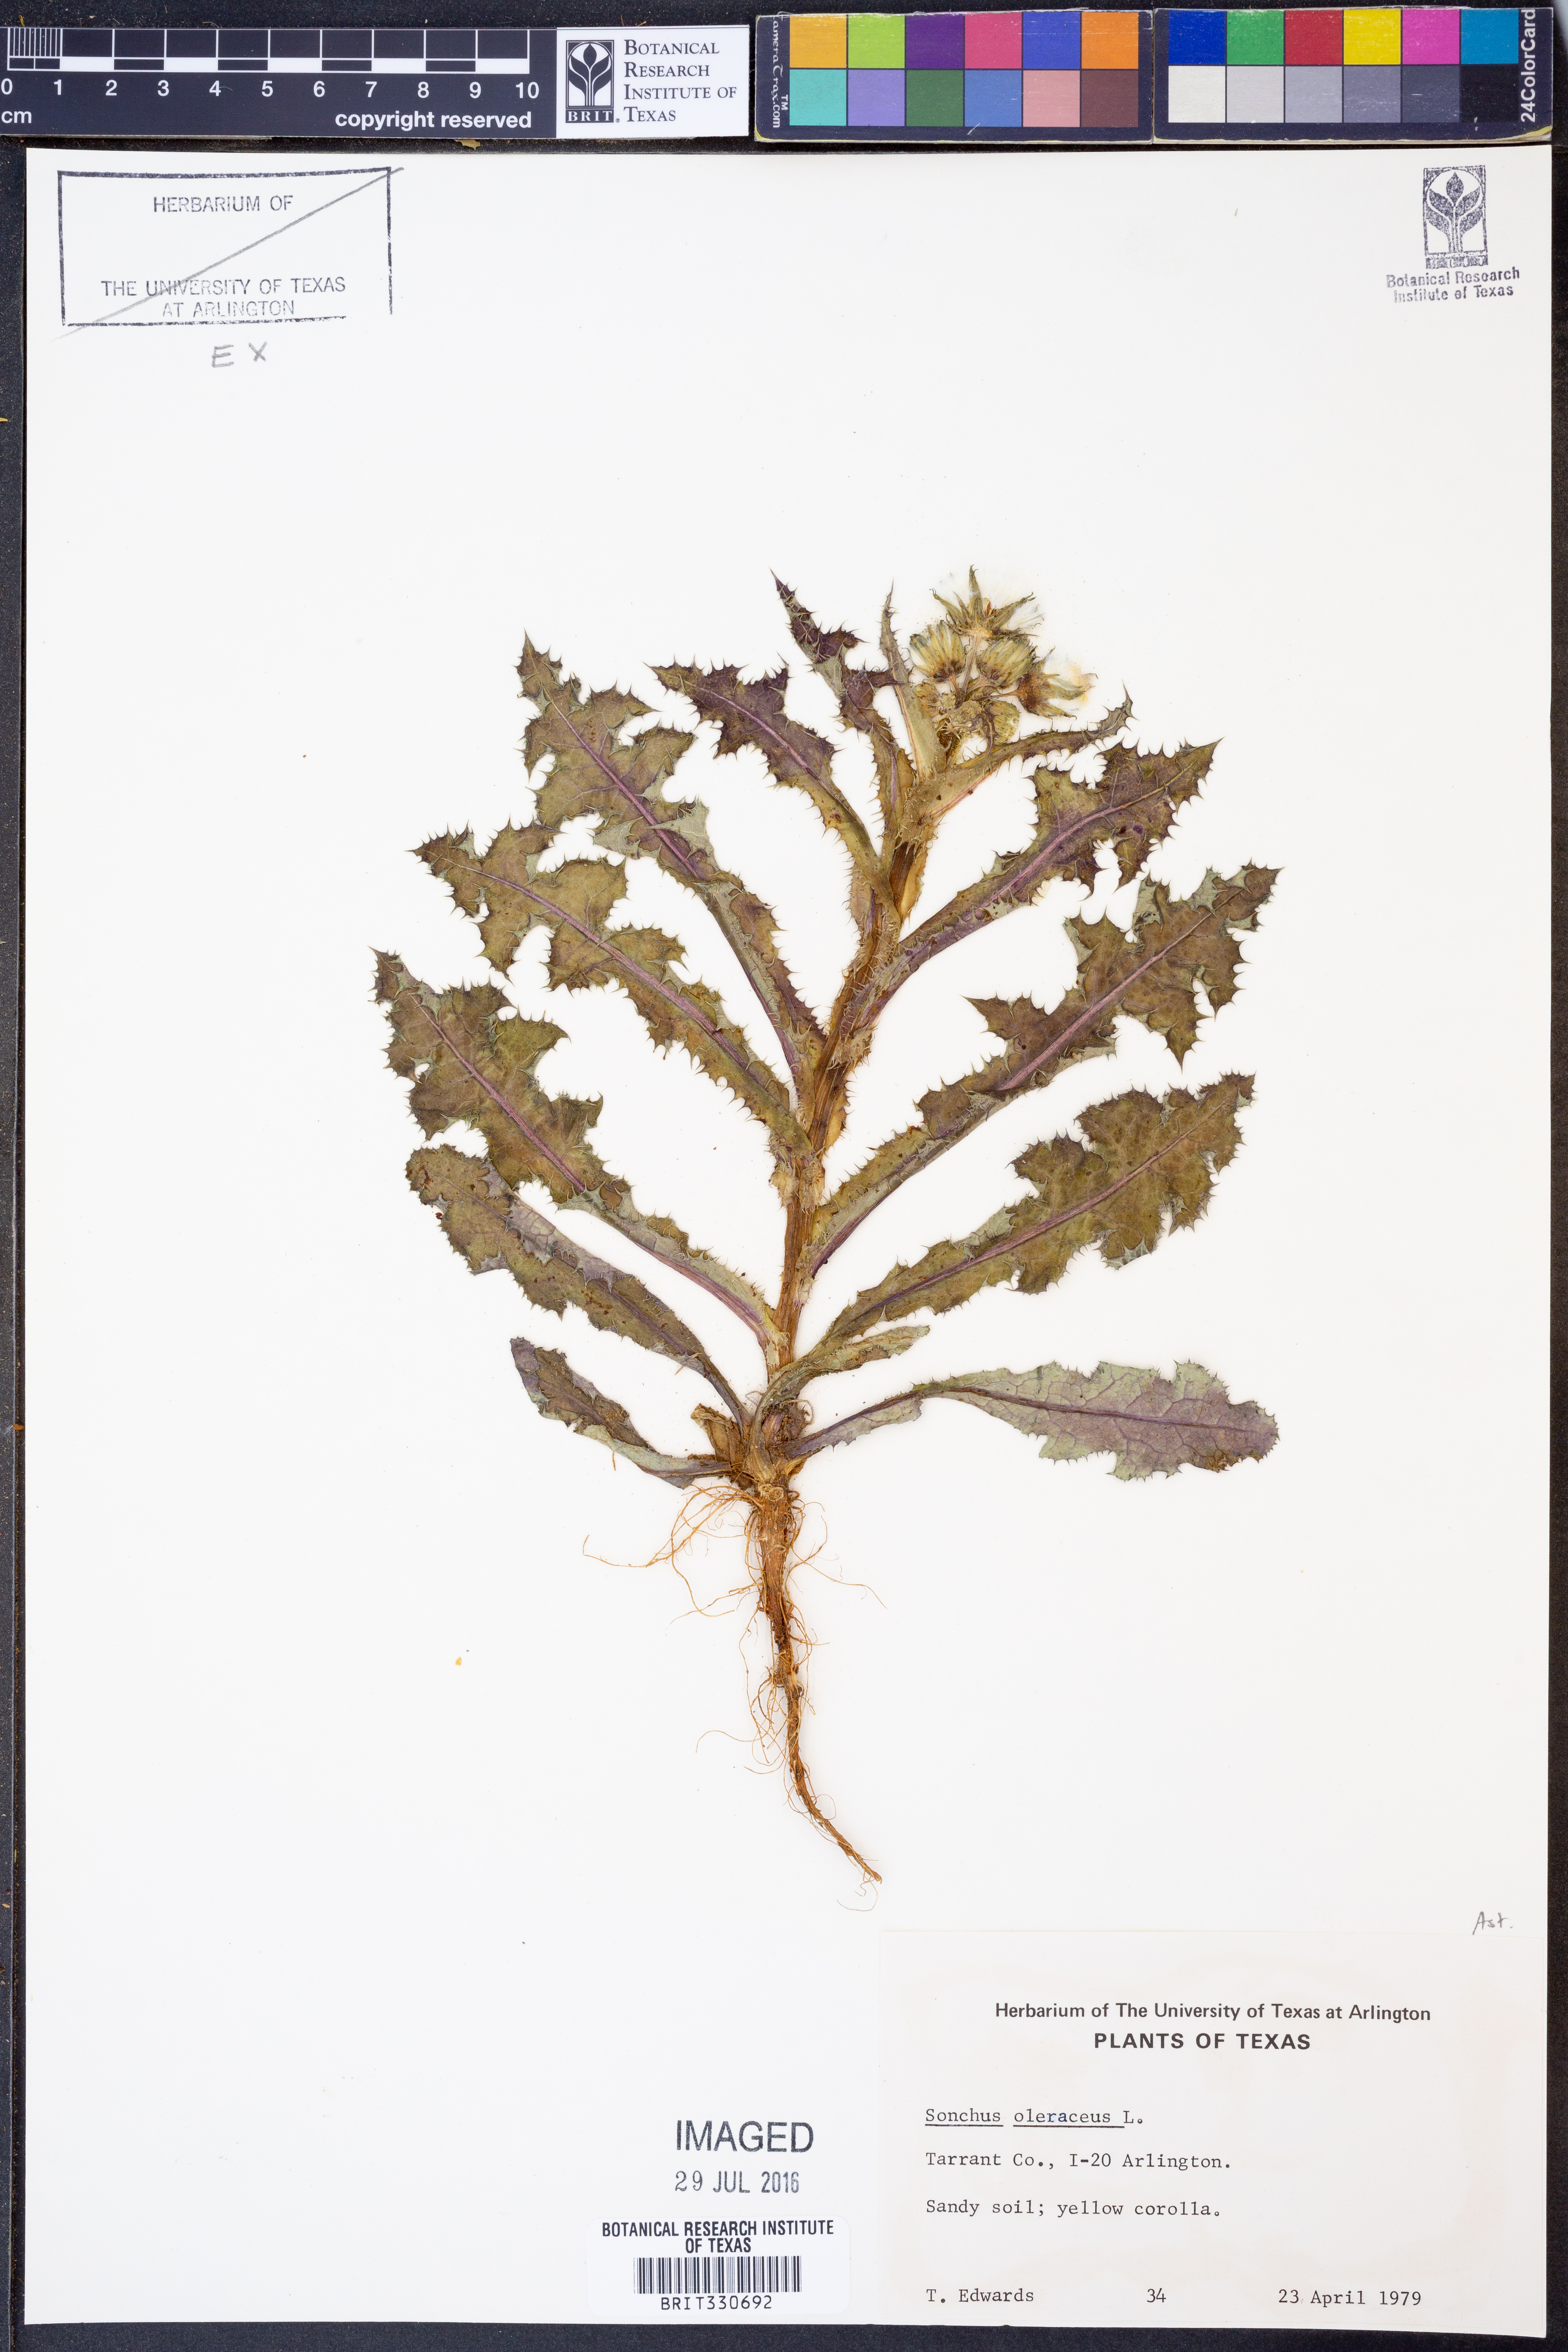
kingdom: Plantae
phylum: Tracheophyta
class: Magnoliopsida
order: Asterales
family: Asteraceae
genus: Sonchus
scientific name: Sonchus oleraceus
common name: Common sowthistle
